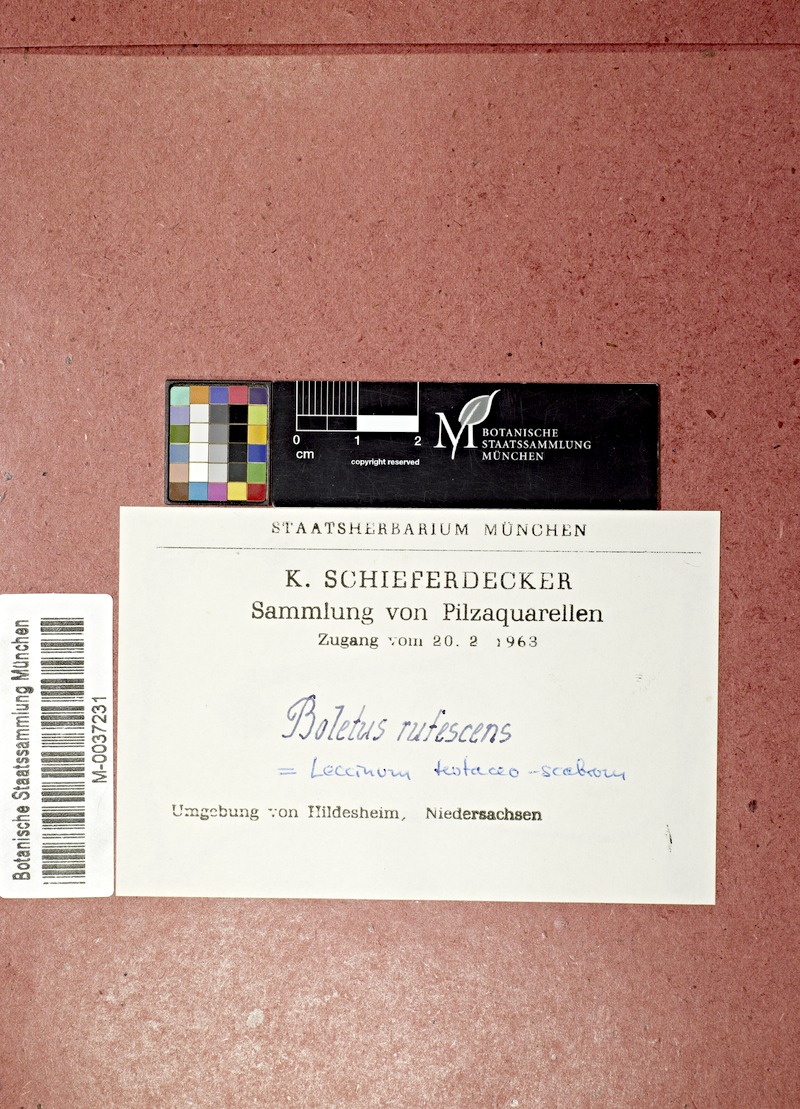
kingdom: Fungi
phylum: Basidiomycota
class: Agaricomycetes
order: Boletales
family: Boletaceae
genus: Leccinum
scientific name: Leccinum versipelle
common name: Orange birch bolete
